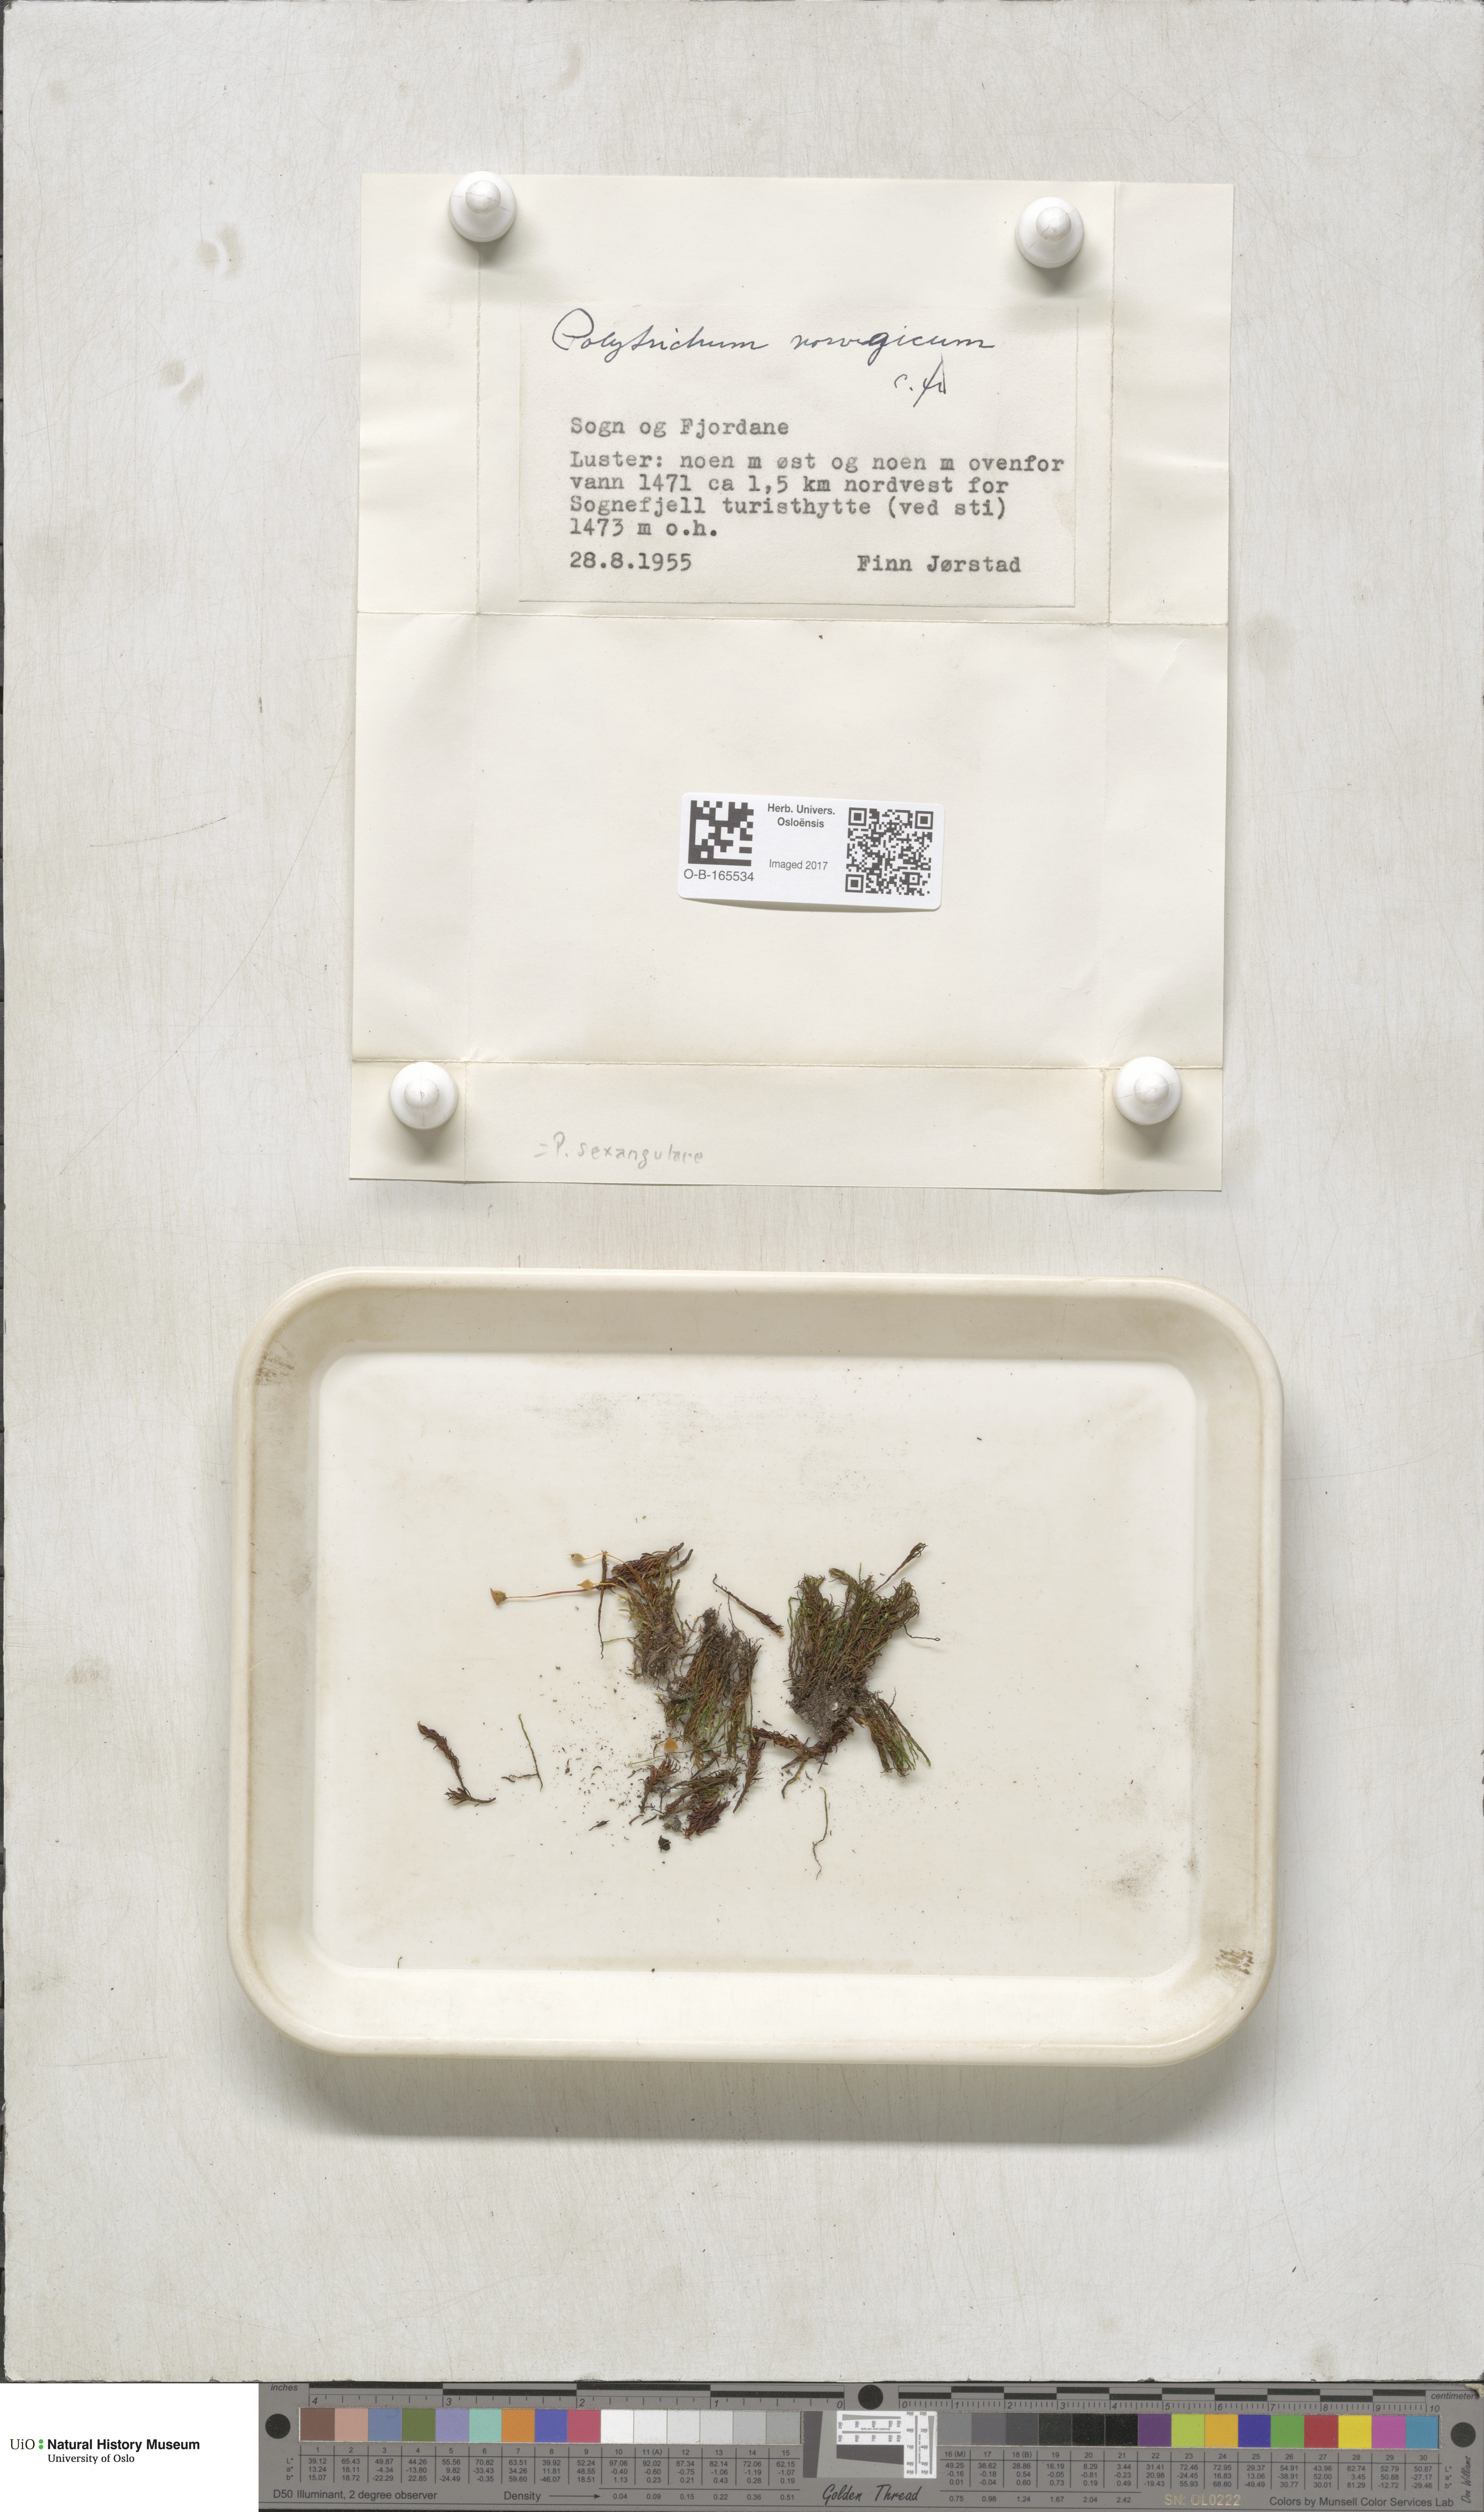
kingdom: Plantae
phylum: Bryophyta
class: Polytrichopsida
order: Polytrichales
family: Polytrichaceae
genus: Polytrichastrum
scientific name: Polytrichastrum sexangulare
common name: Northern haircap
